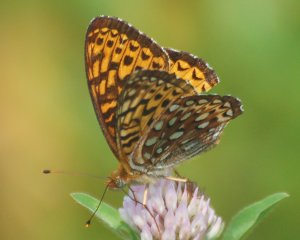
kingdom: Animalia
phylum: Arthropoda
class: Insecta
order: Lepidoptera
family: Nymphalidae
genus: Speyeria
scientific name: Speyeria atlantis
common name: Atlantis Fritillary
